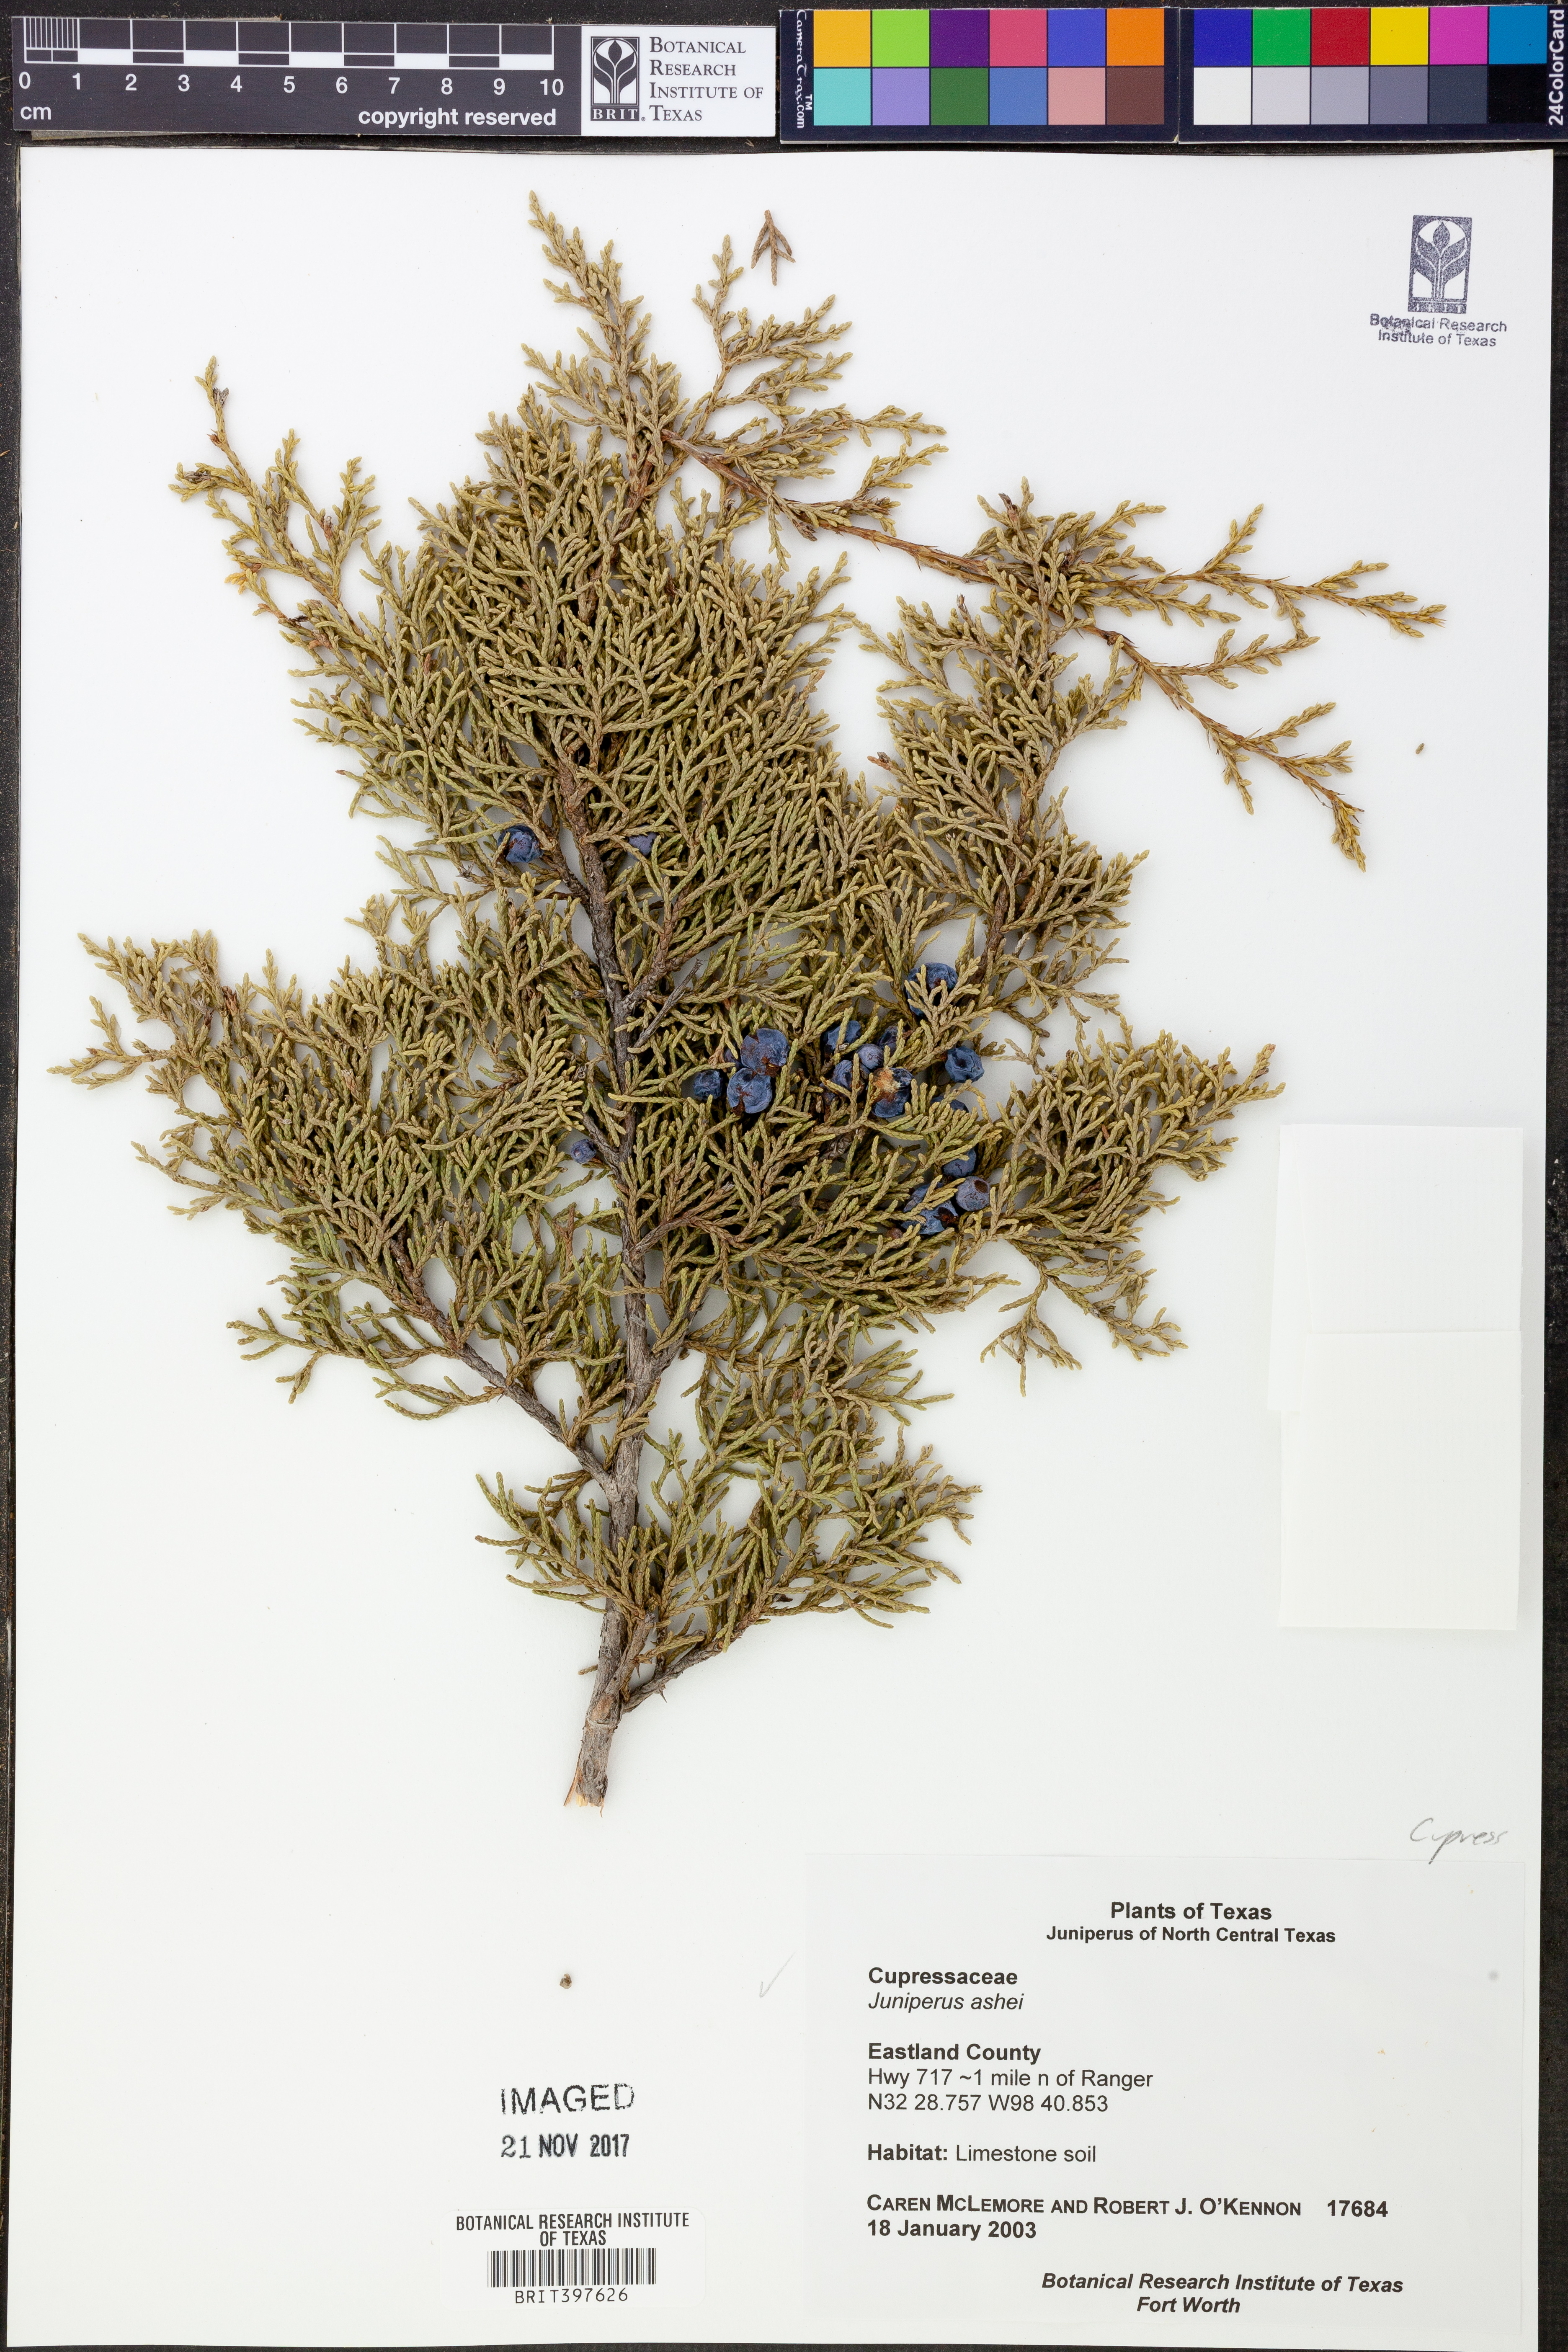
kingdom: Plantae
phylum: Tracheophyta
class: Pinopsida
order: Pinales
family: Cupressaceae
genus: Juniperus
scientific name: Juniperus ashei
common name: Mexican juniper
